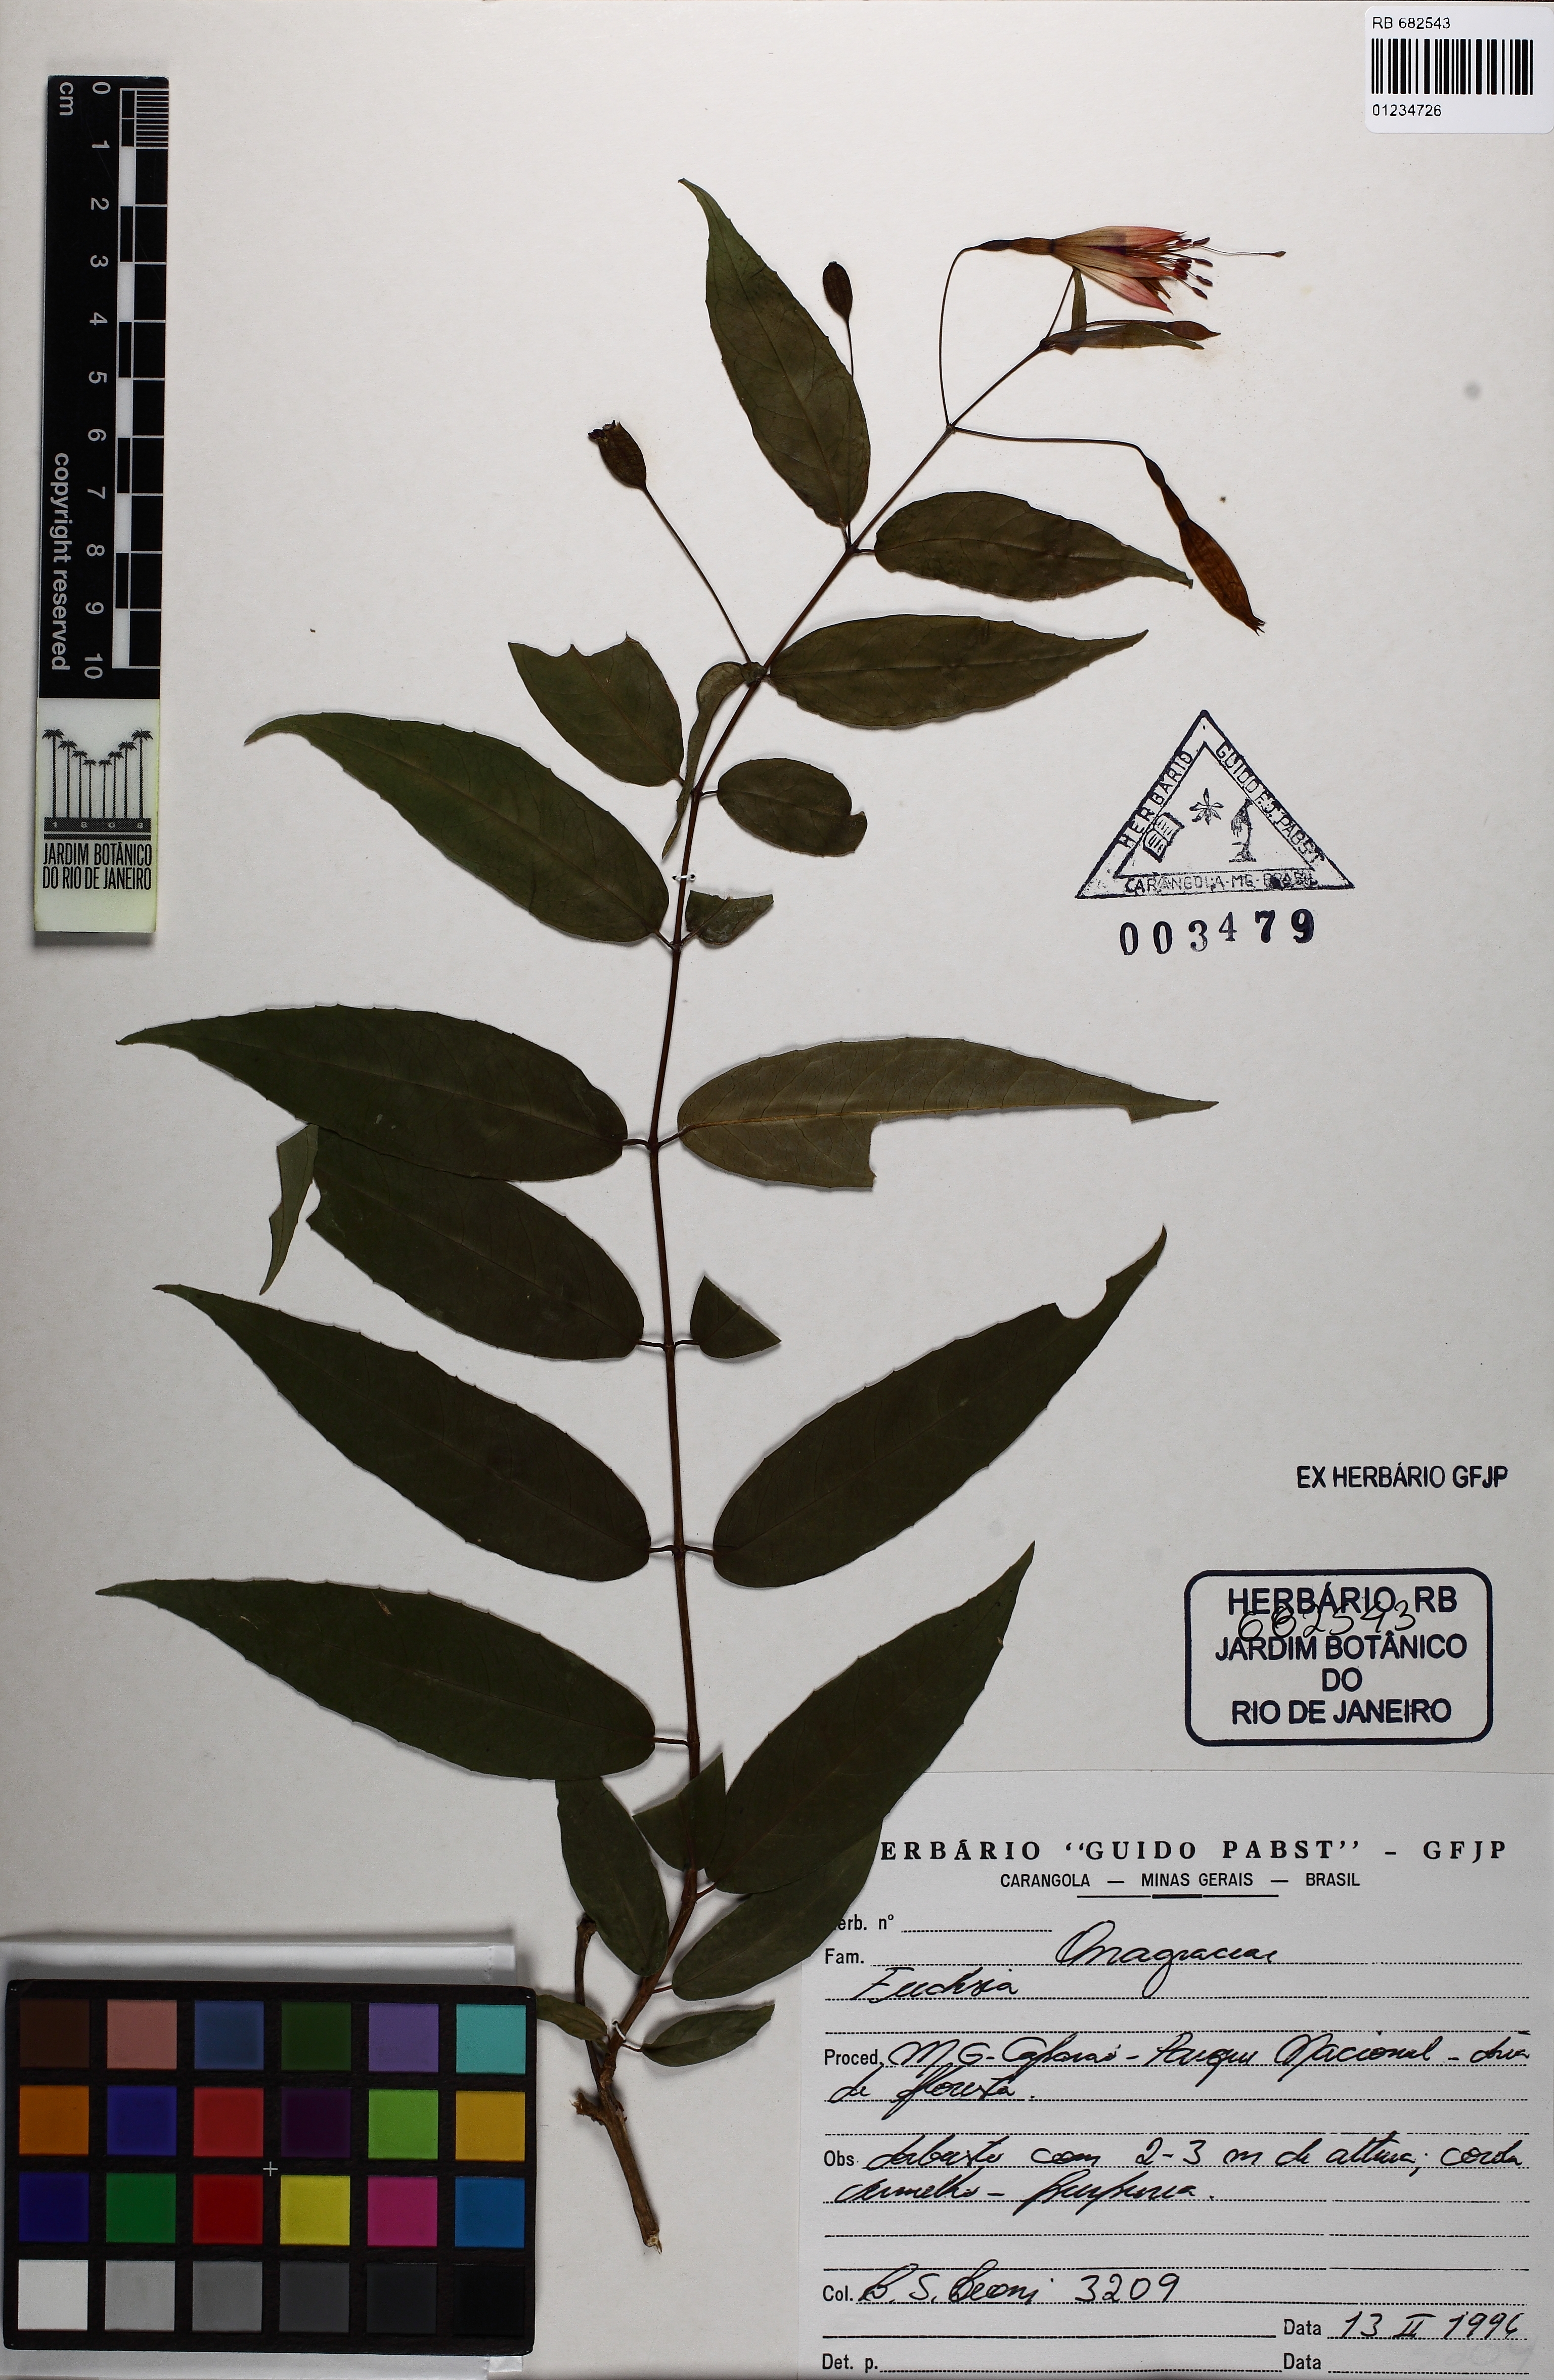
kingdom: Plantae
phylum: Tracheophyta
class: Magnoliopsida
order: Myrtales
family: Onagraceae
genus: Fuchsia
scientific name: Fuchsia
